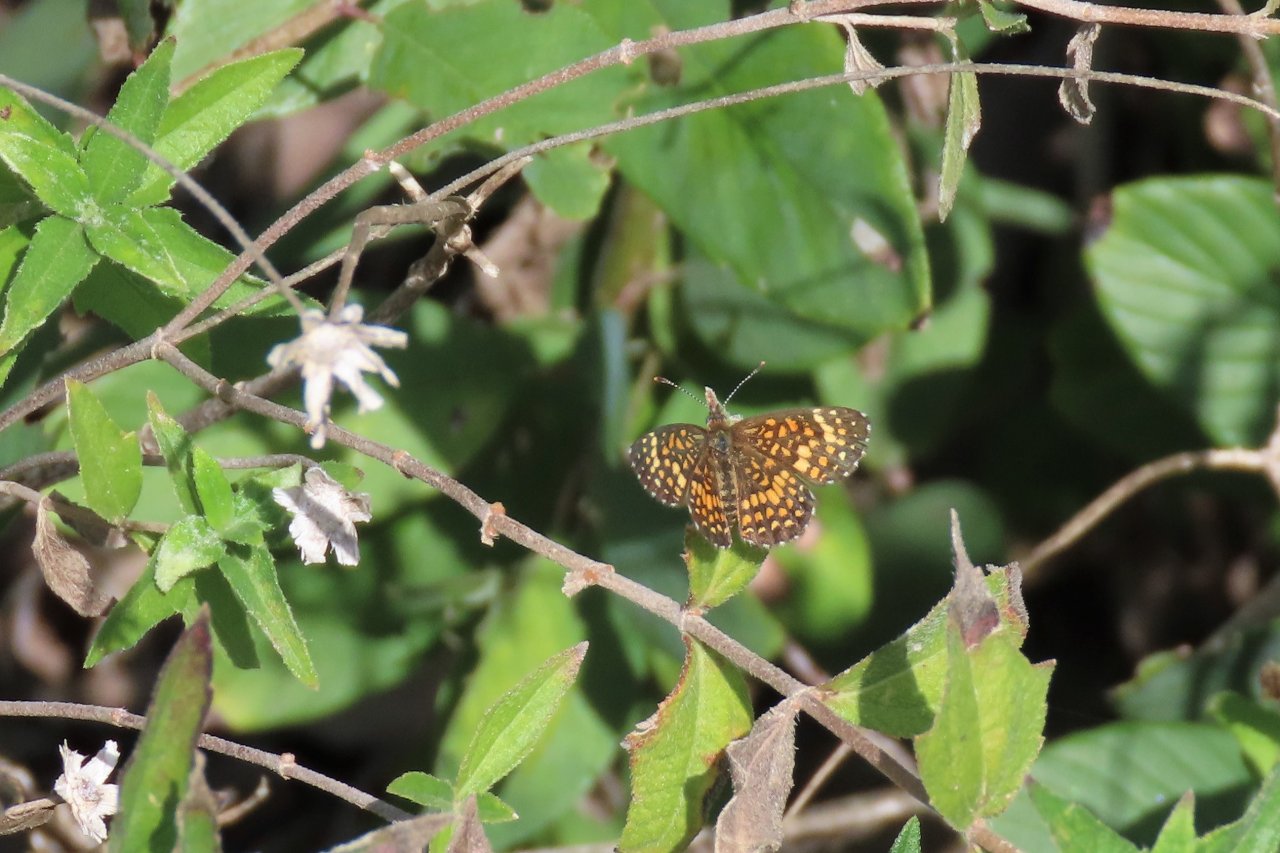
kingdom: Animalia
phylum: Arthropoda
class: Insecta
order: Lepidoptera
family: Nymphalidae
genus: Texola
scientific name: Texola elada
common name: Elada Checkerspot
